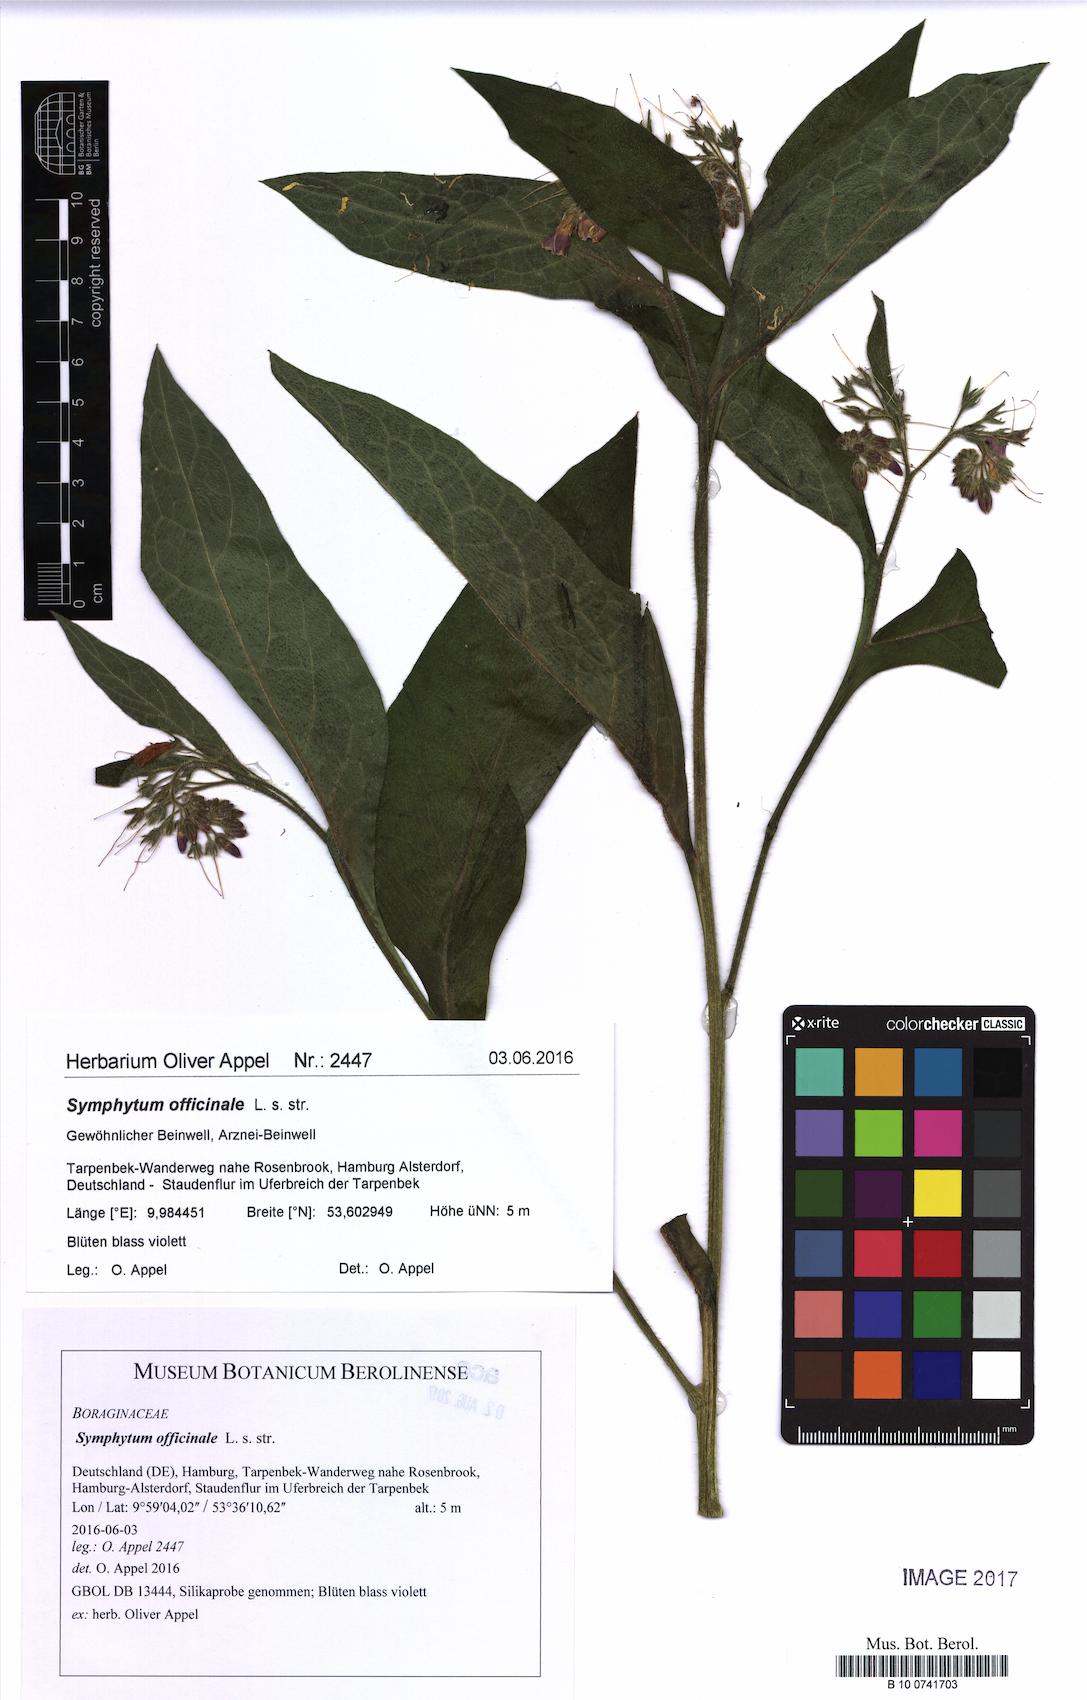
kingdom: Plantae
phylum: Tracheophyta
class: Magnoliopsida
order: Boraginales
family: Boraginaceae
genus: Symphytum
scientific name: Symphytum officinale
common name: Common comfrey
